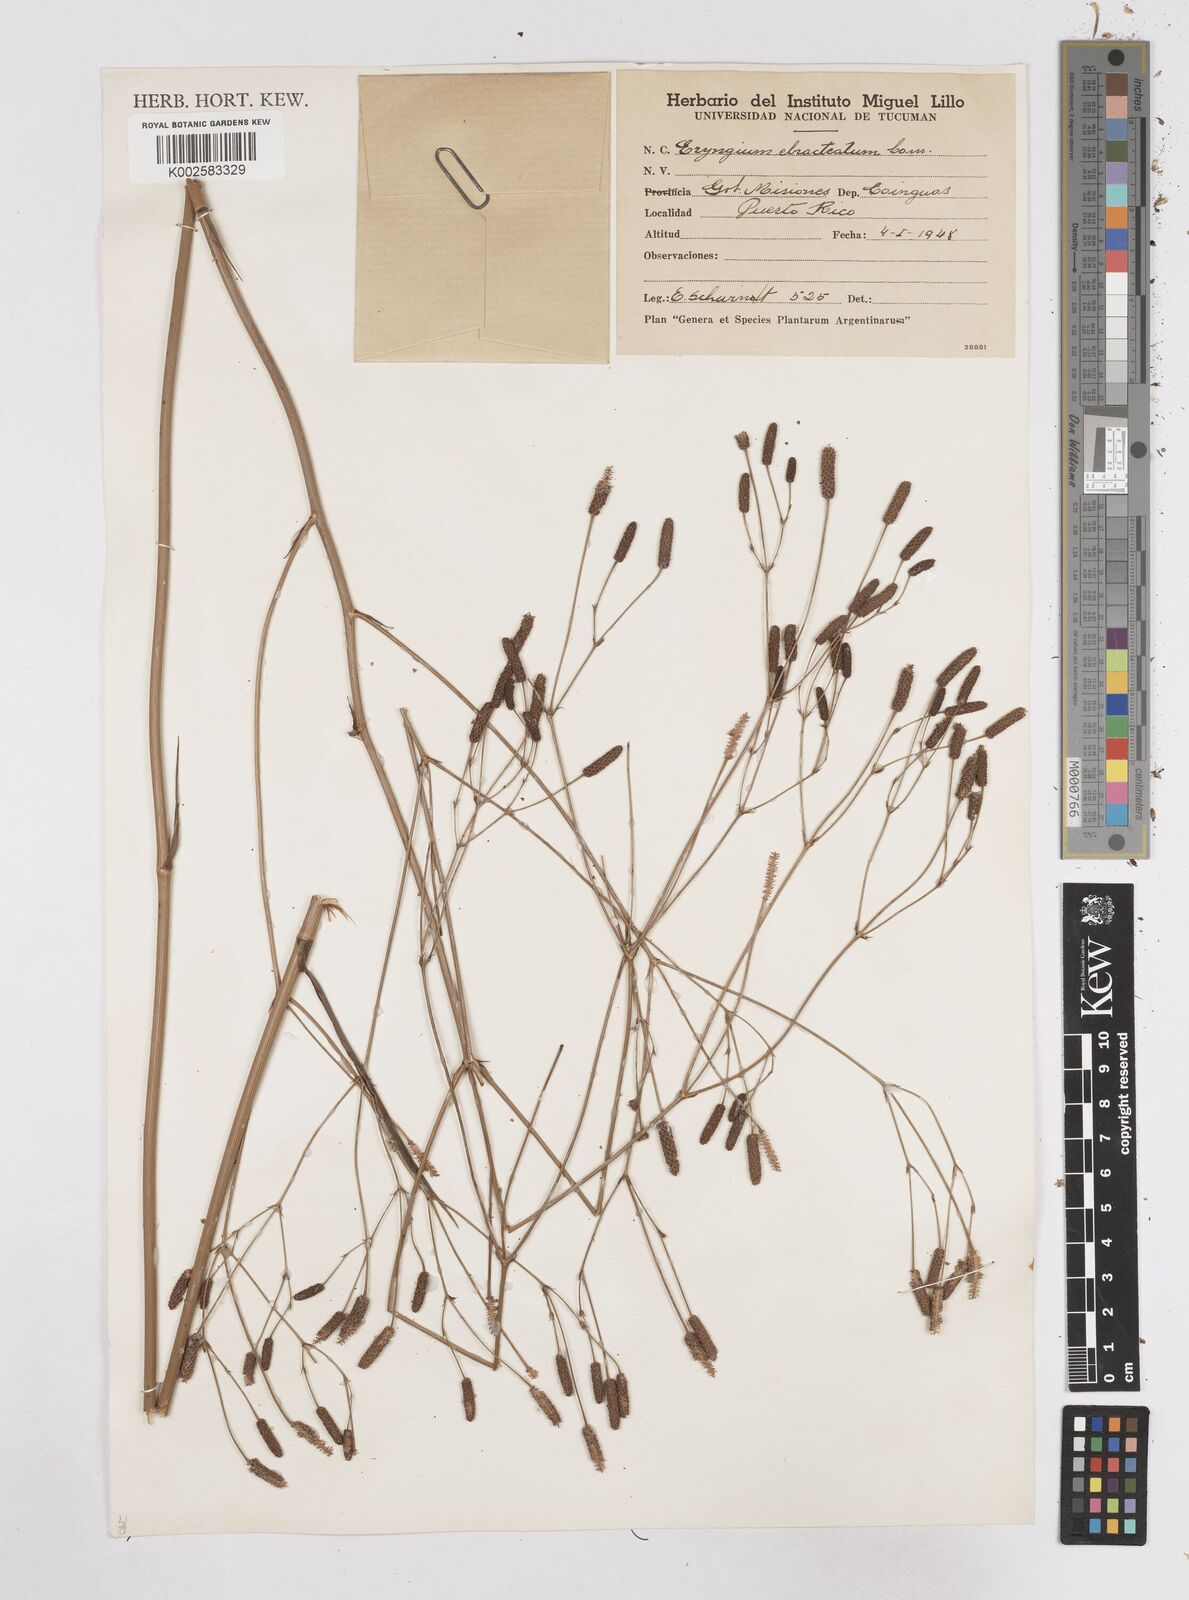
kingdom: Plantae
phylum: Tracheophyta
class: Magnoliopsida
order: Apiales
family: Apiaceae
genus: Eryngium
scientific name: Eryngium ebracteatum
